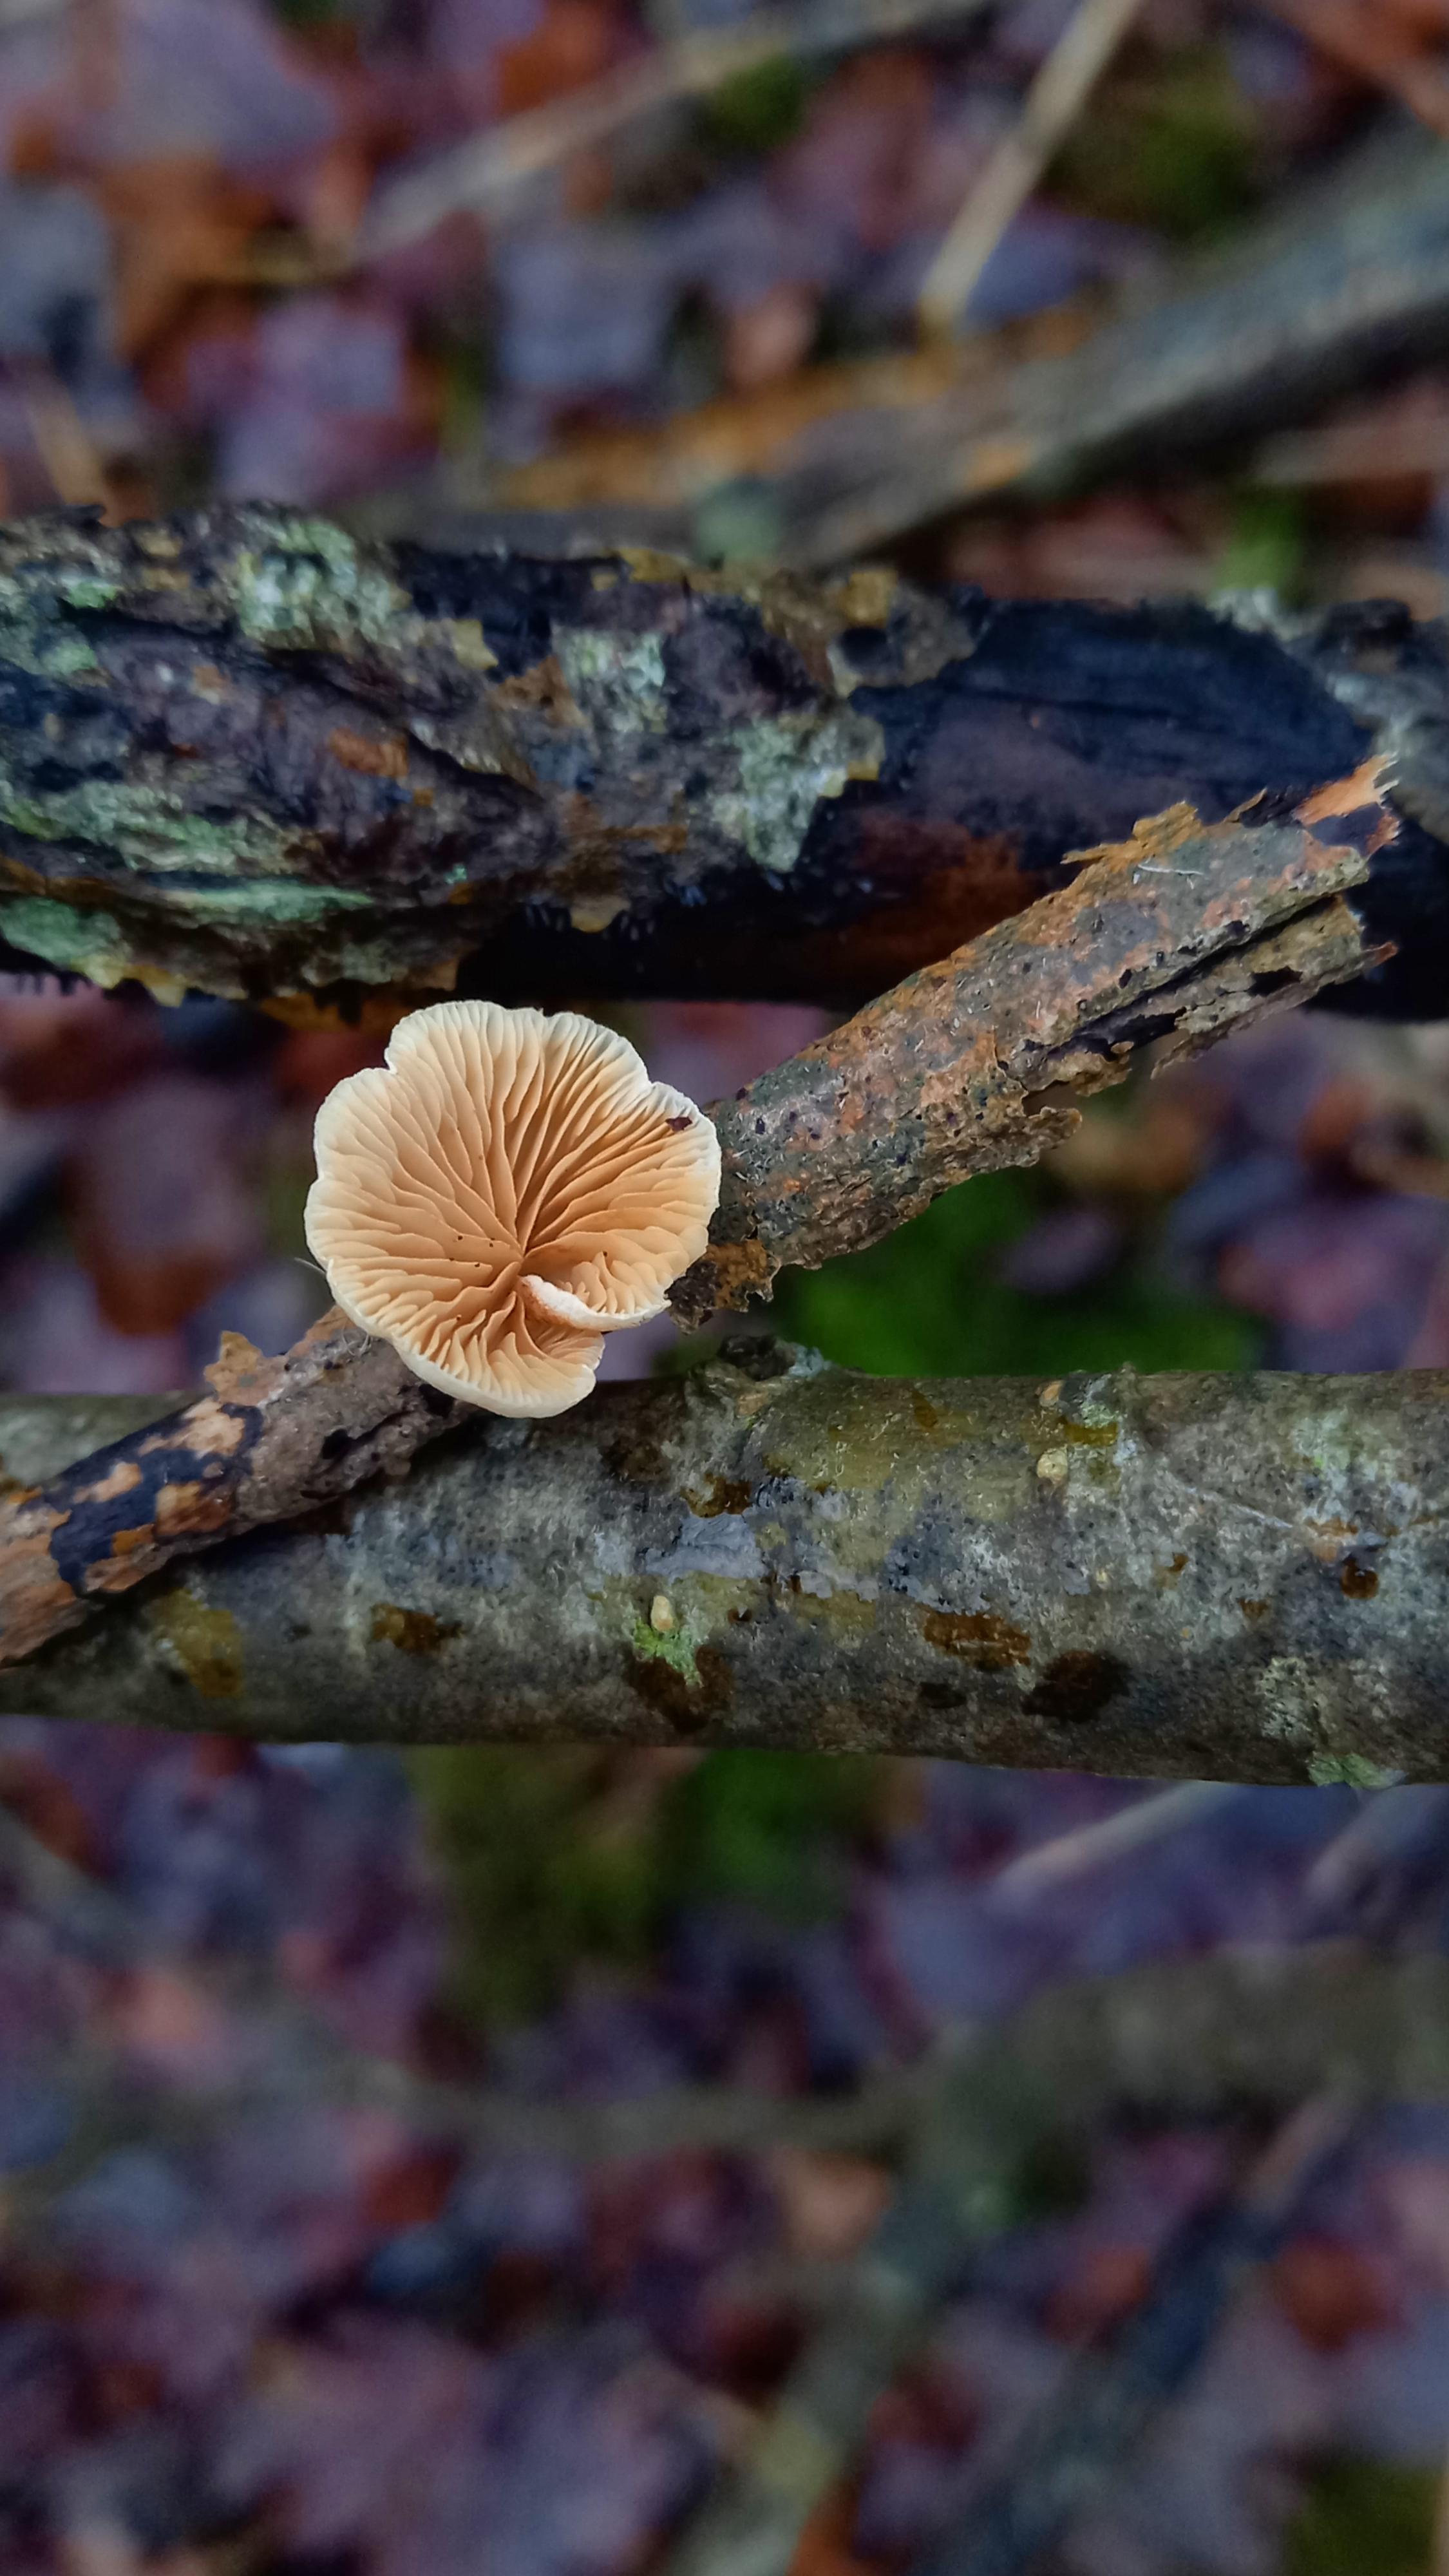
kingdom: Fungi
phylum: Basidiomycota
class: Agaricomycetes
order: Agaricales
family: Crepidotaceae
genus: Crepidotus
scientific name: Crepidotus
